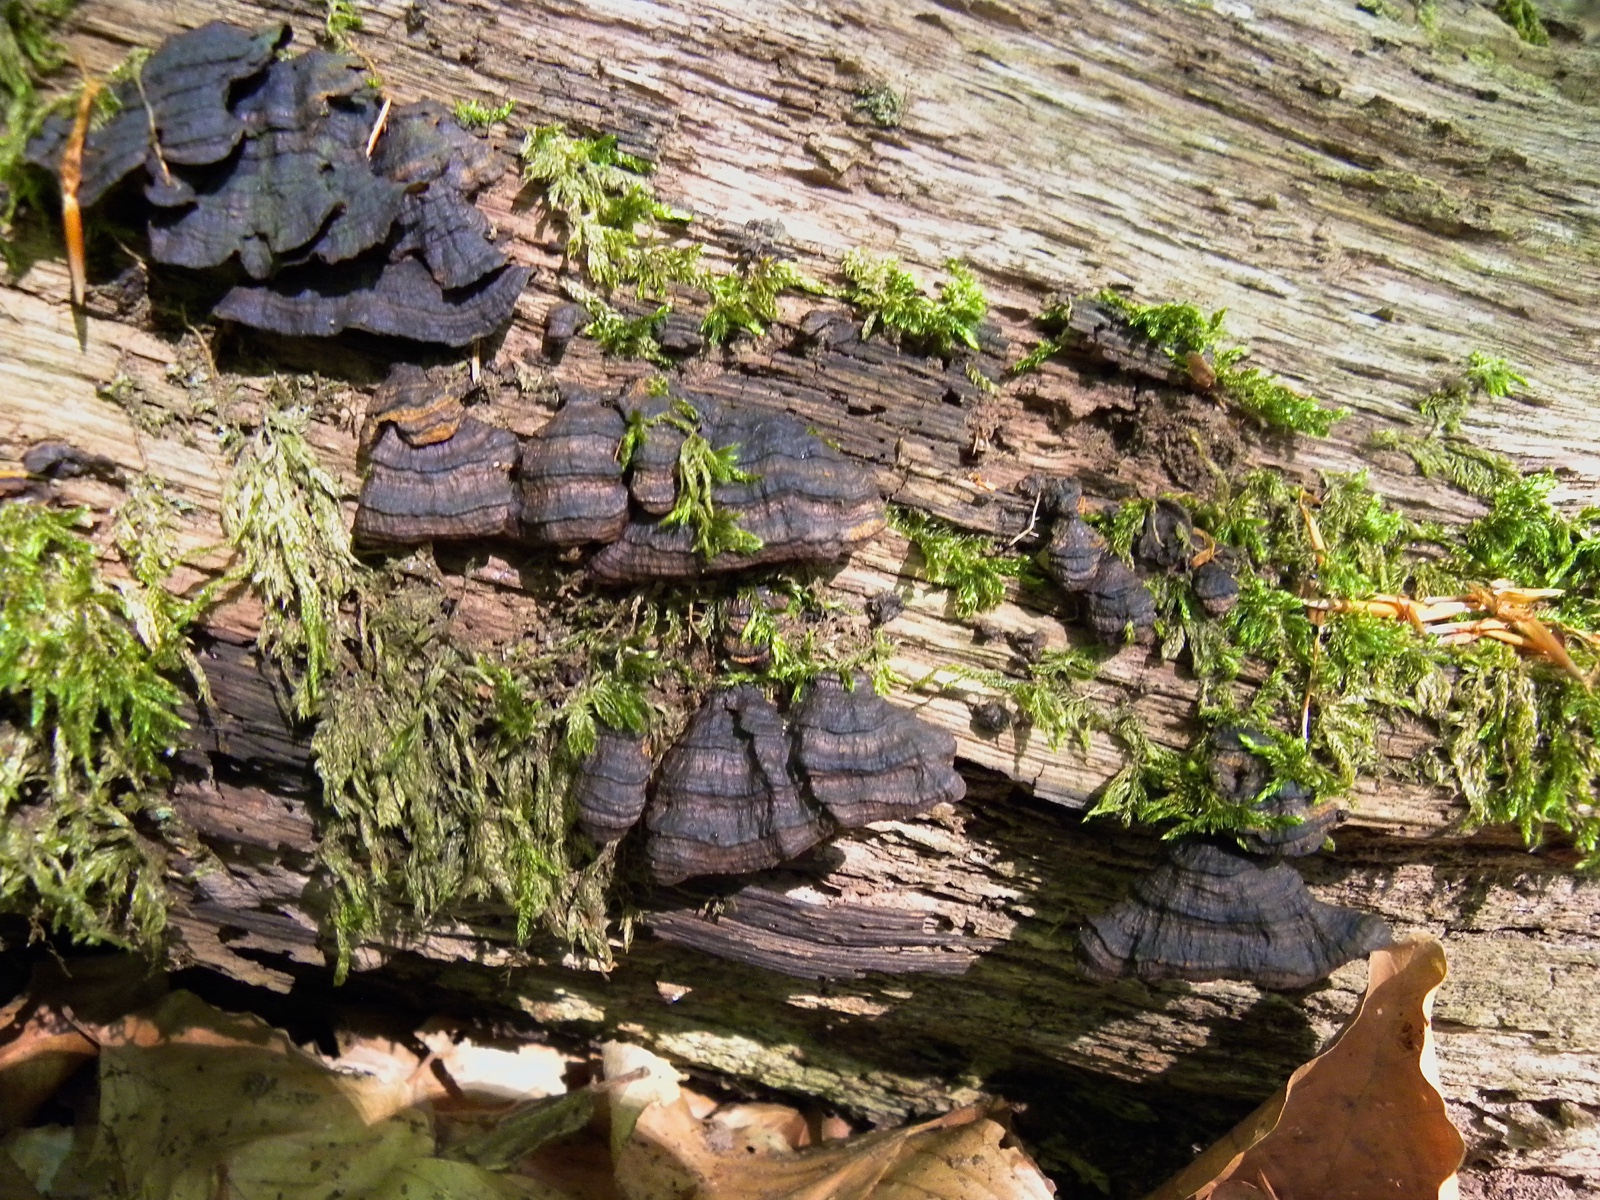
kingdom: Fungi
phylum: Basidiomycota
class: Agaricomycetes
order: Hymenochaetales
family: Hymenochaetaceae
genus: Hymenochaete
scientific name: Hymenochaete rubiginosa
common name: stiv ruslædersvamp
